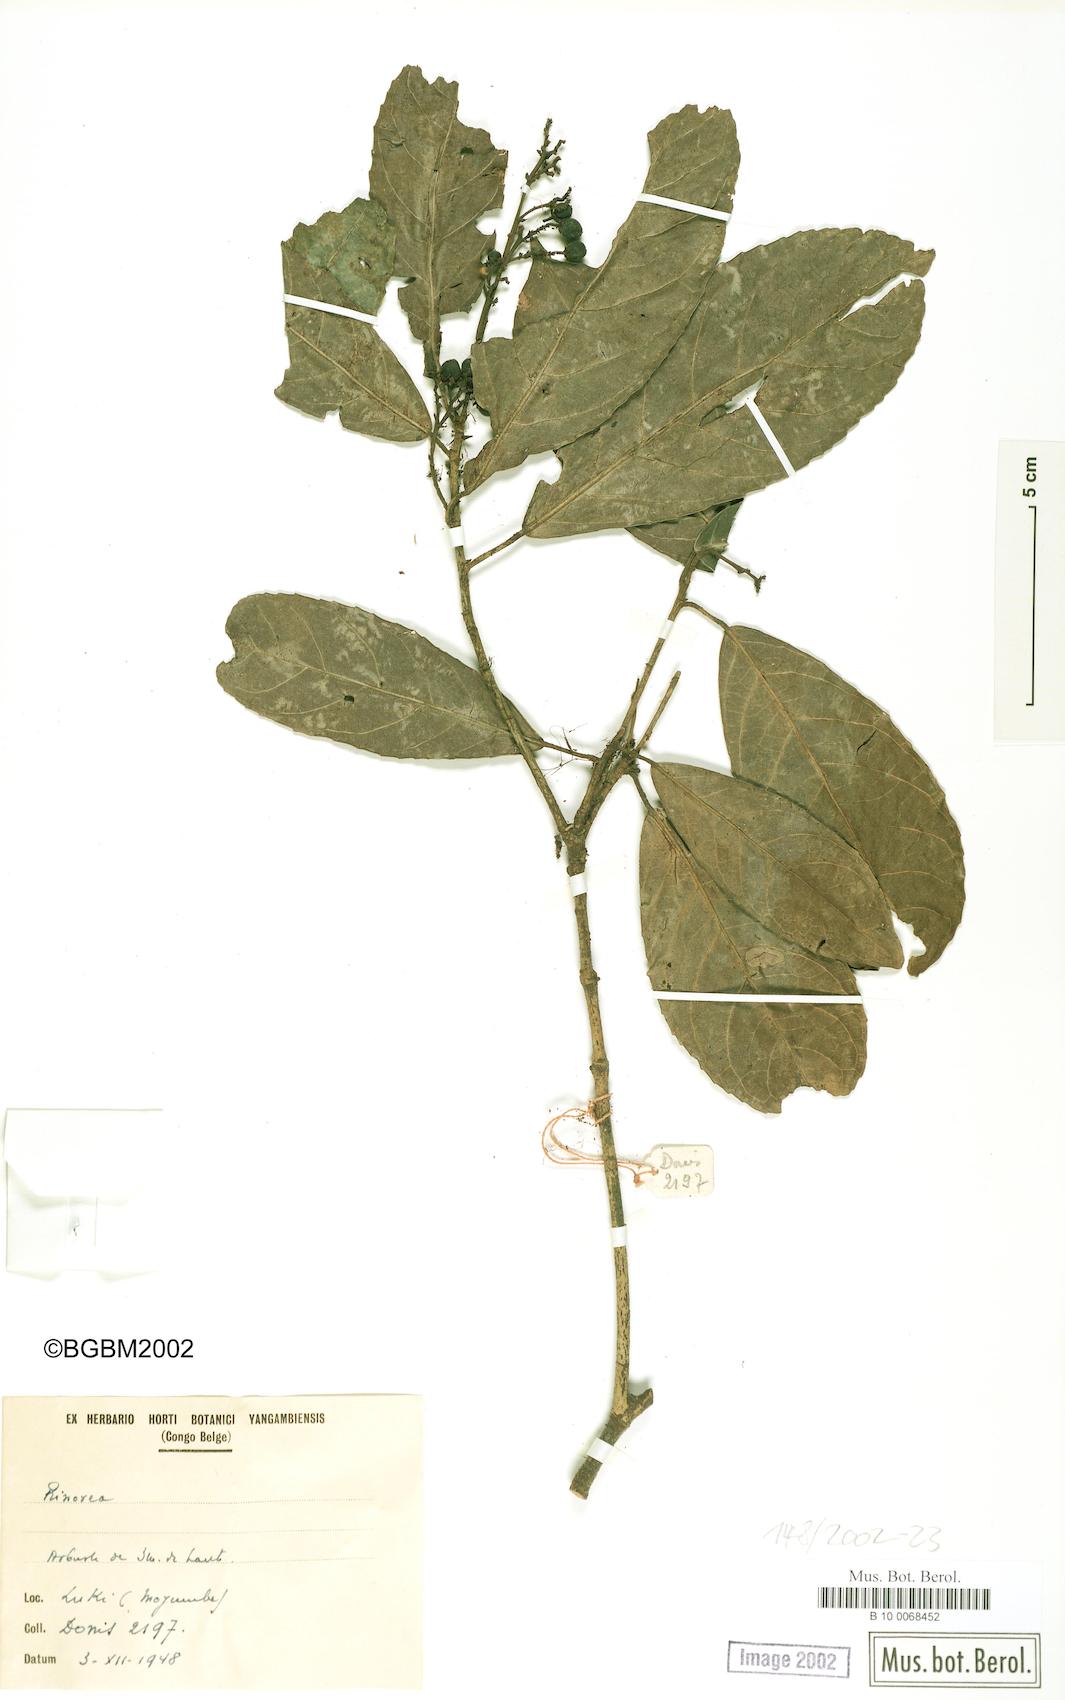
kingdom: Plantae
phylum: Tracheophyta
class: Magnoliopsida
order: Malpighiales
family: Violaceae
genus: Rinorea
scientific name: Rinorea
